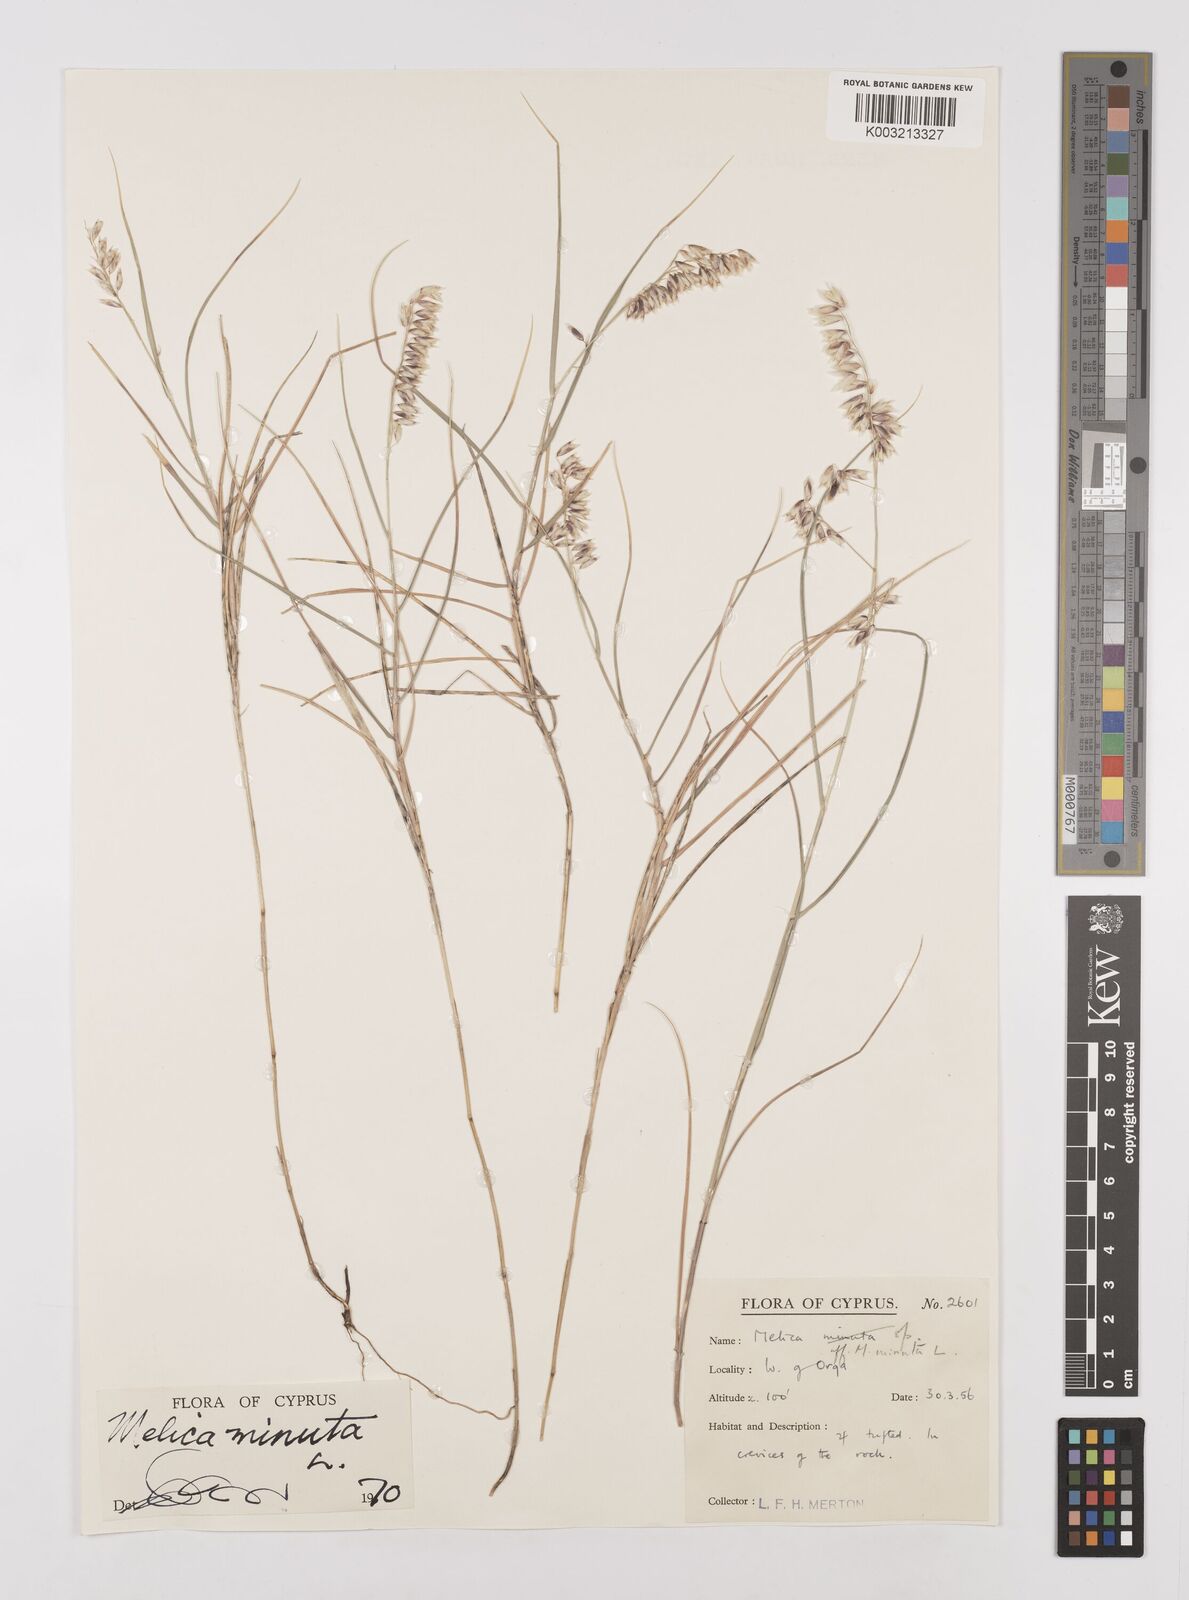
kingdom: Plantae
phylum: Tracheophyta
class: Liliopsida
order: Poales
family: Poaceae
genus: Melica
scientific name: Melica minuta
